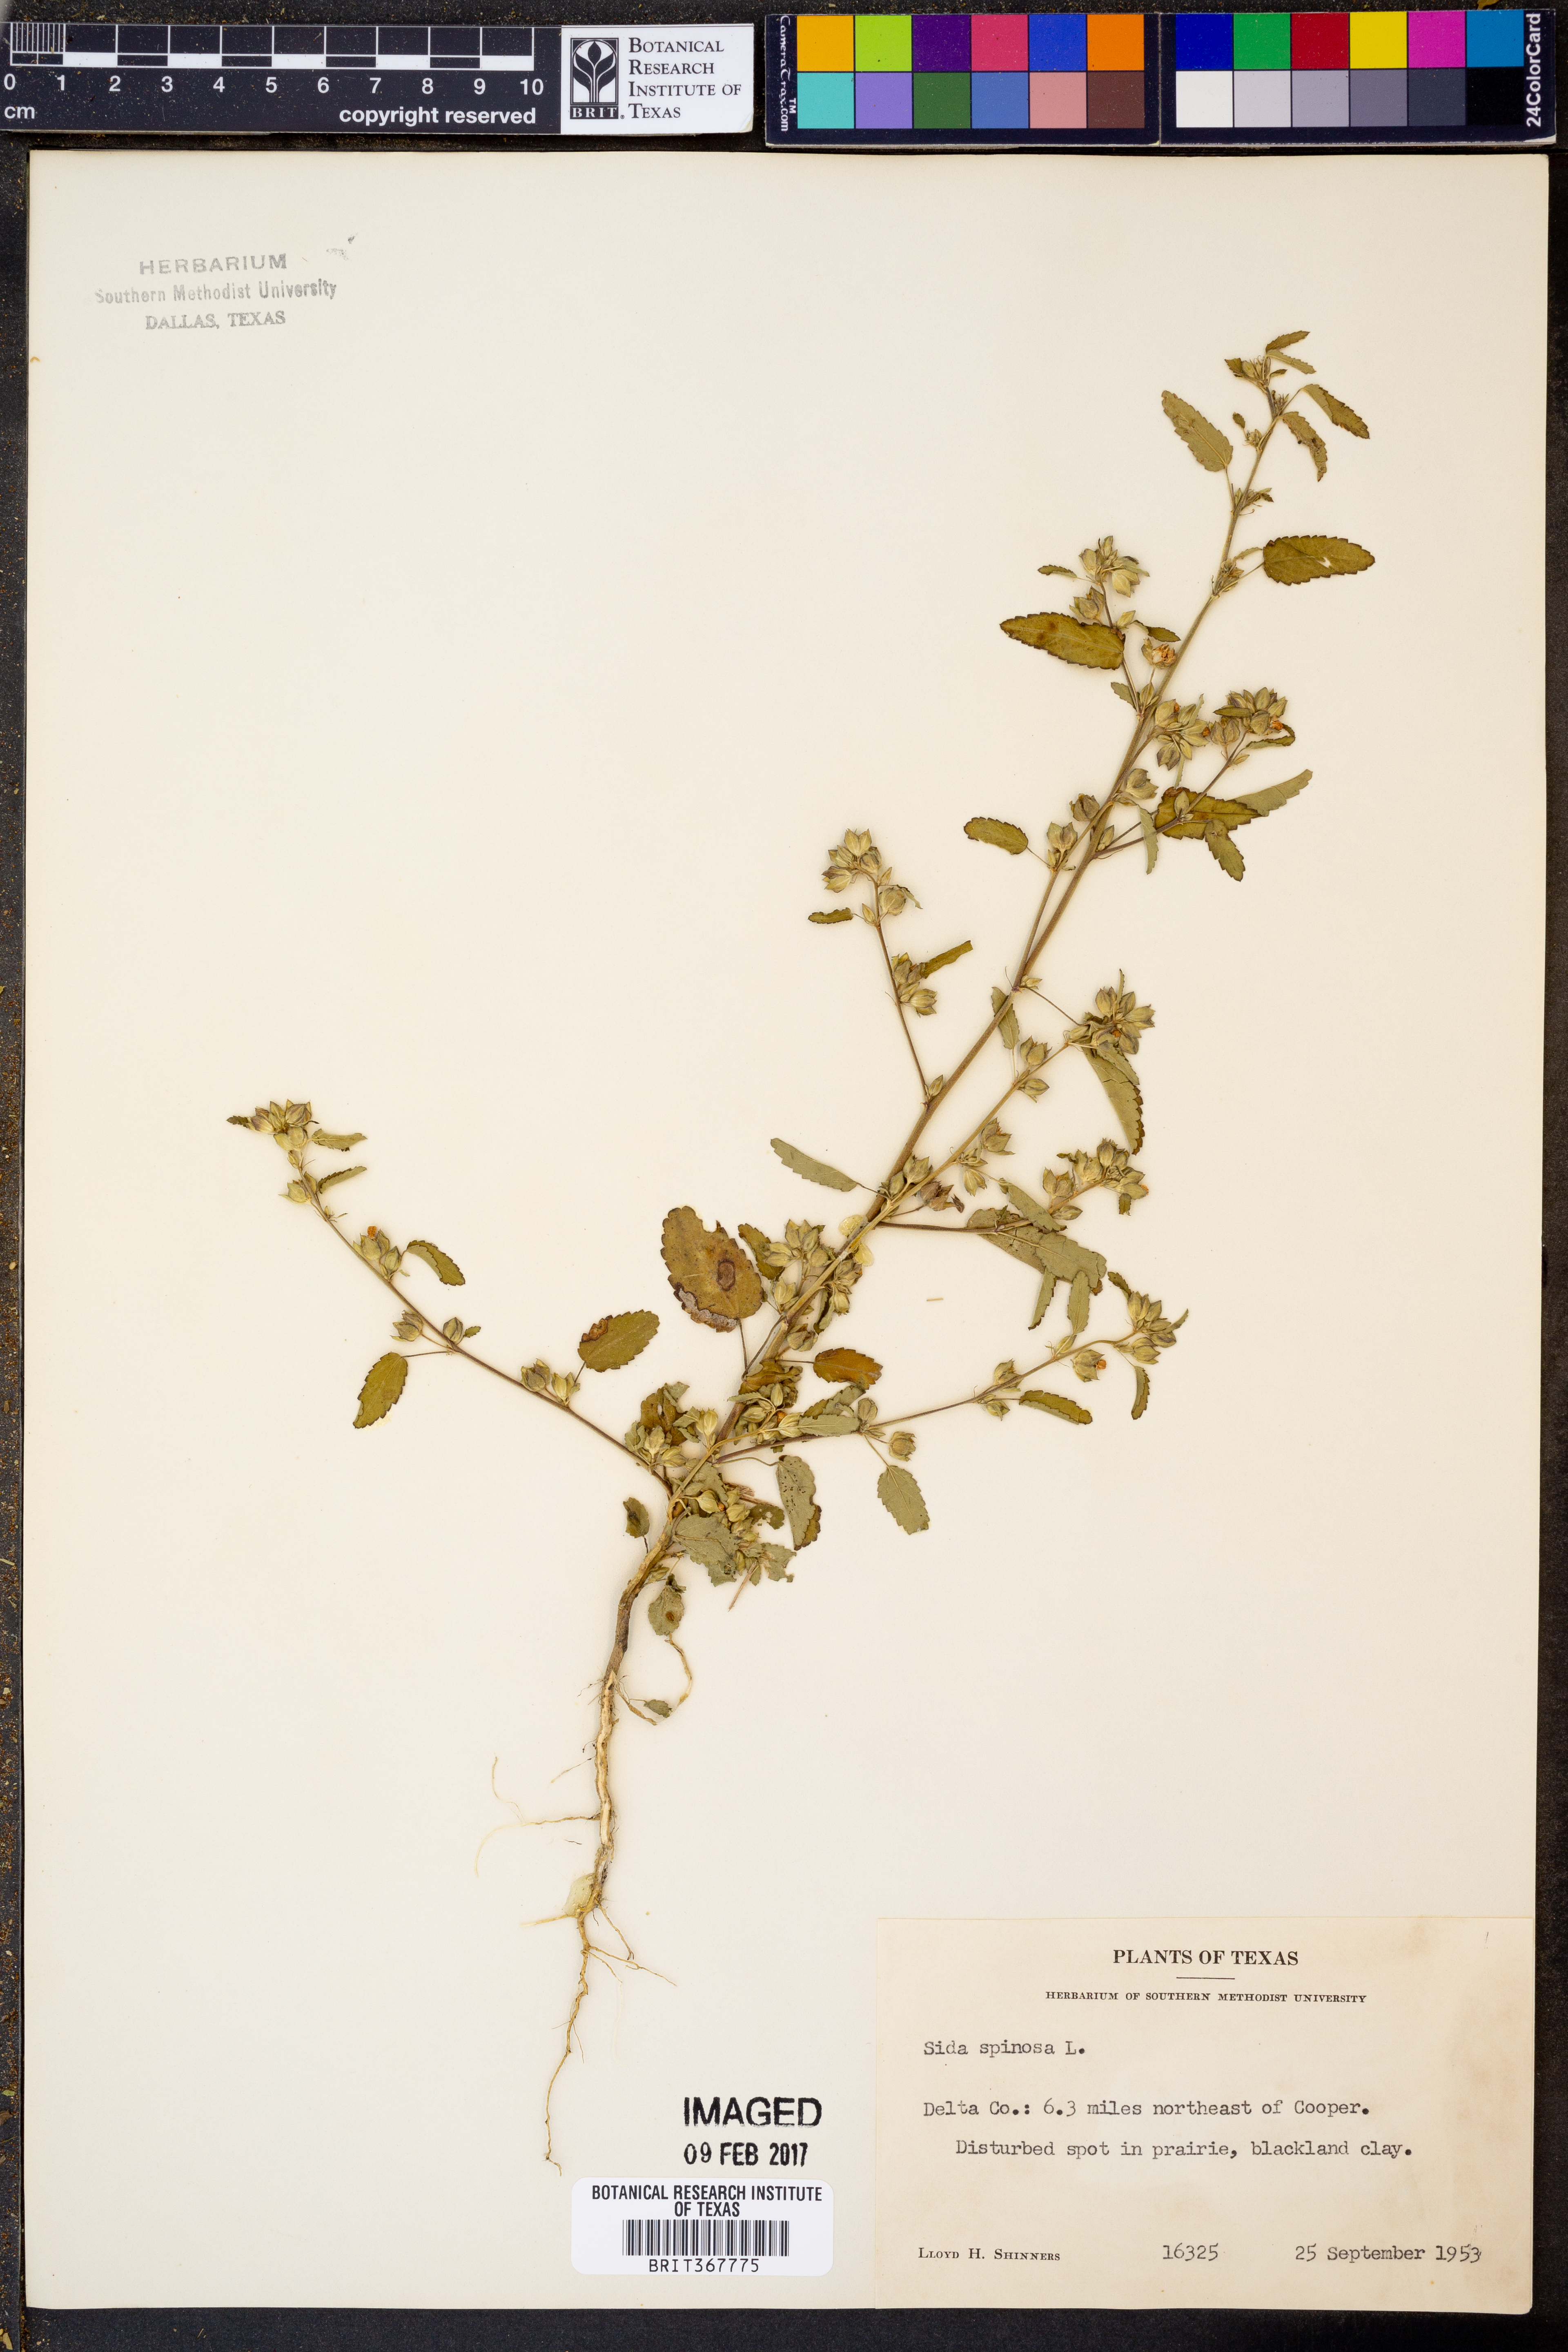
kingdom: Plantae
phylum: Tracheophyta
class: Magnoliopsida
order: Malvales
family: Malvaceae
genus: Sida
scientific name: Sida spinosa
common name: Prickly fanpetals
